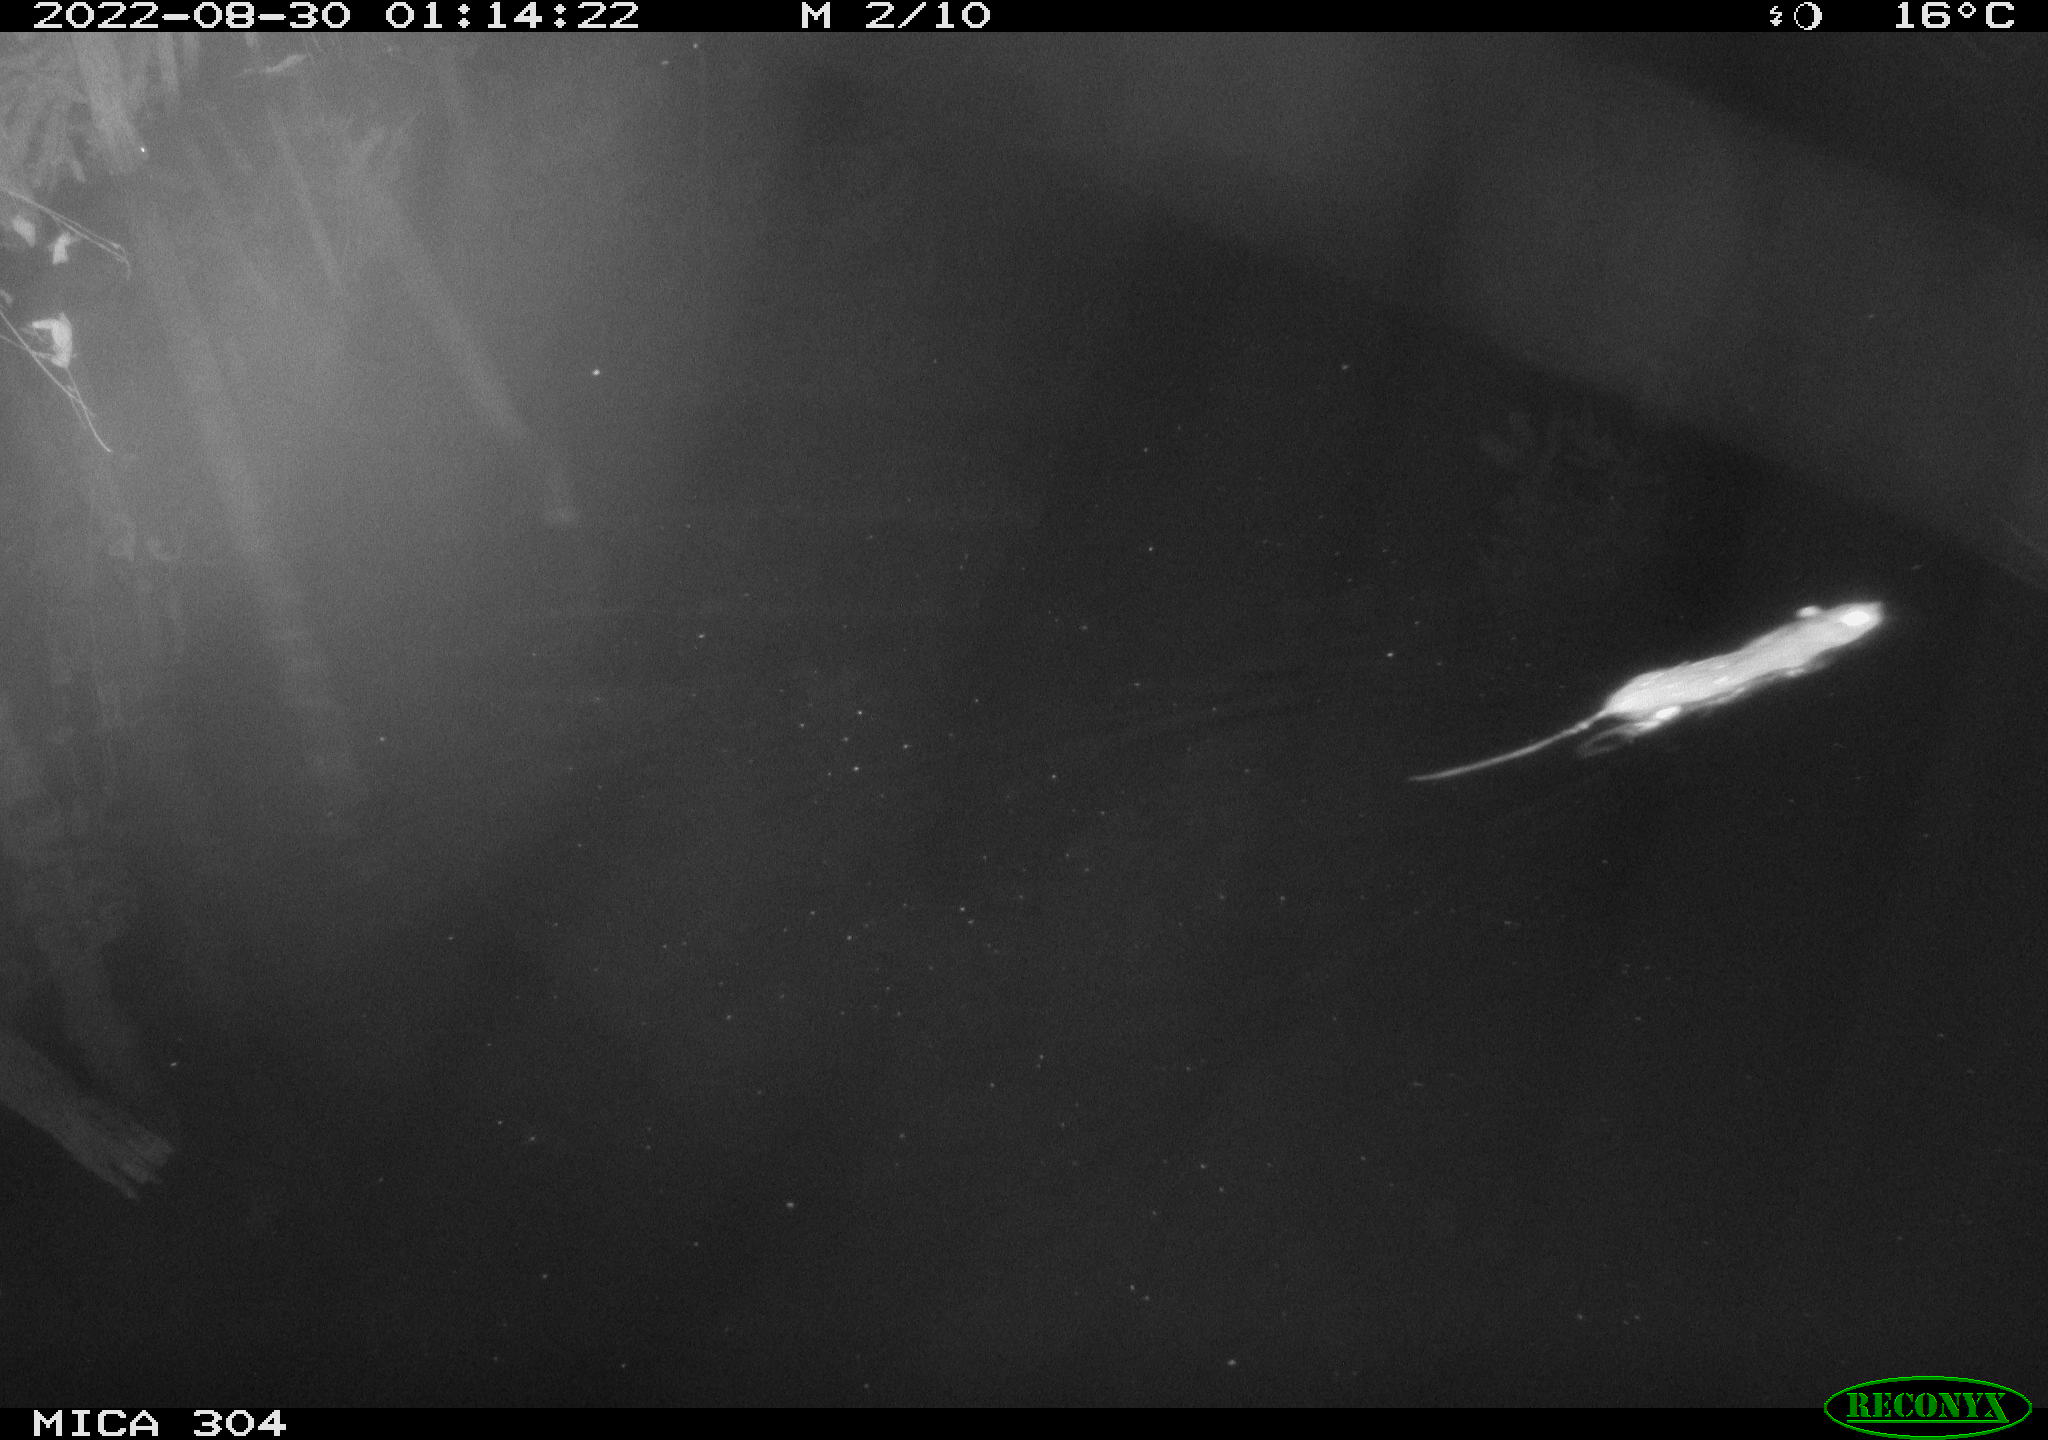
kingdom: Animalia
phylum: Chordata
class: Mammalia
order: Rodentia
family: Muridae
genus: Rattus
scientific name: Rattus norvegicus
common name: Brown rat
